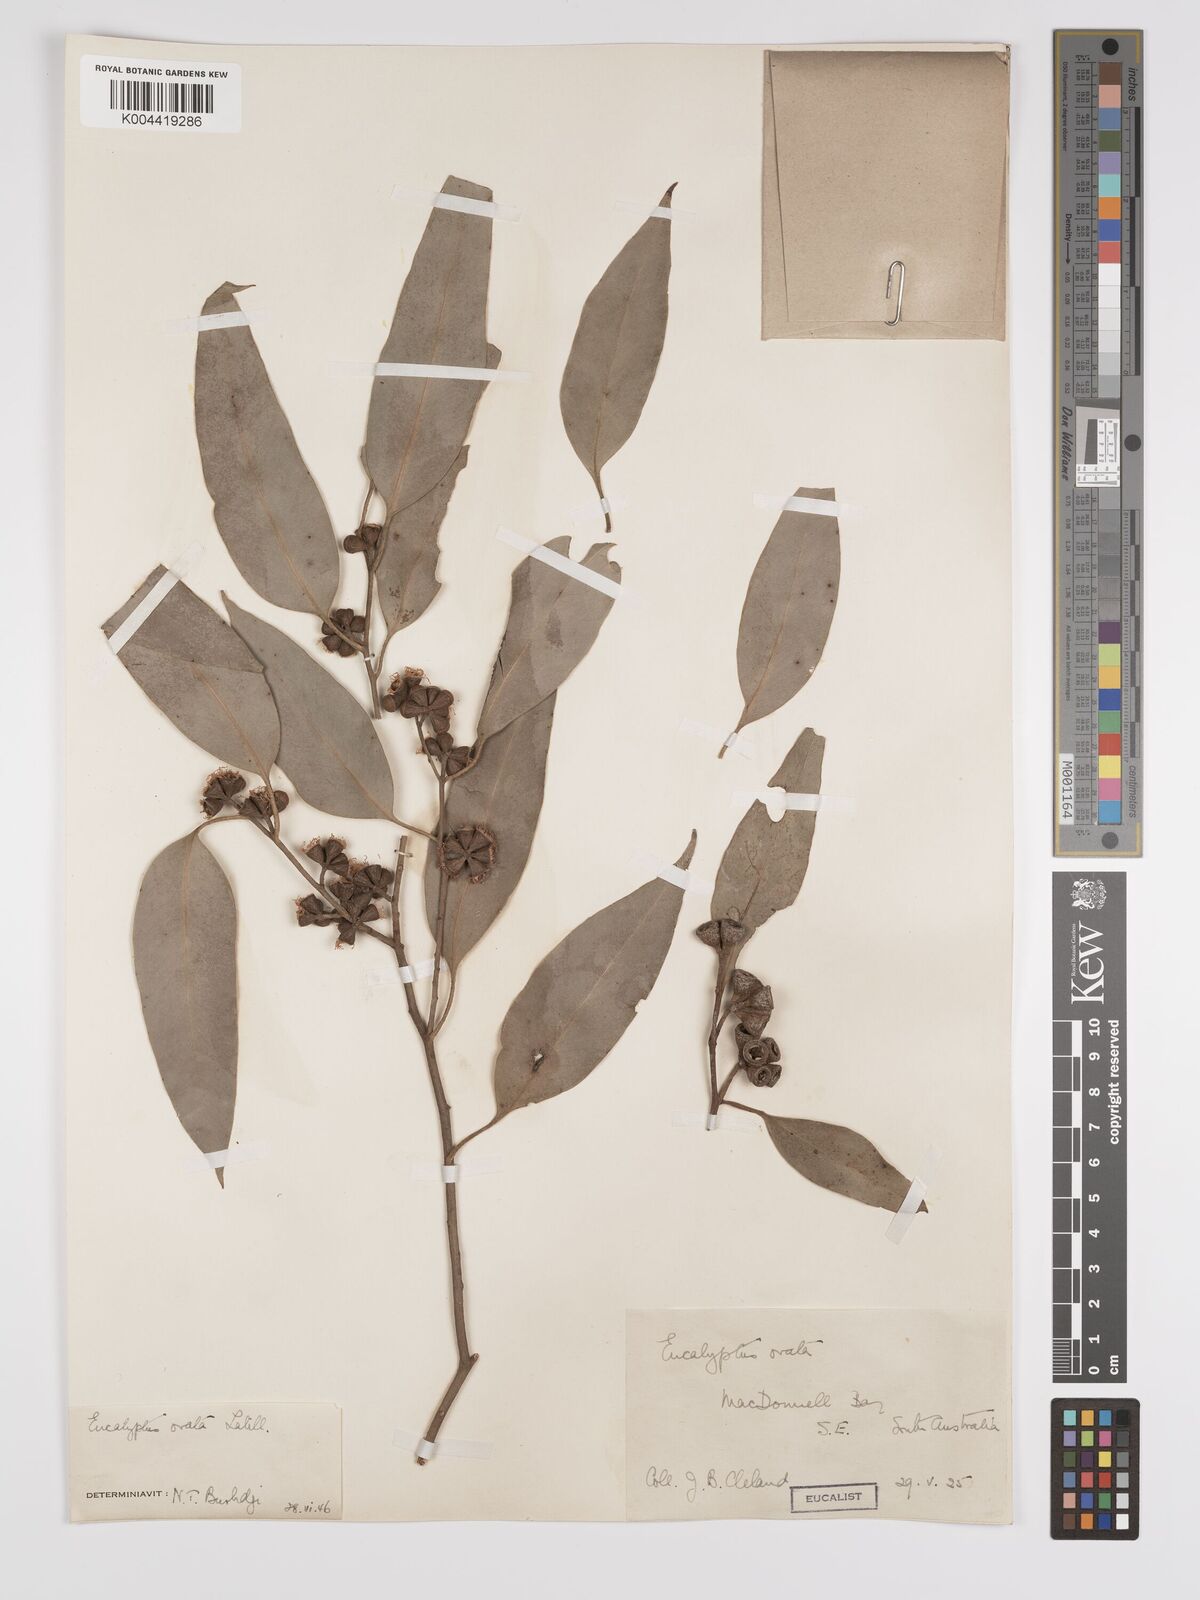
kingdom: Plantae
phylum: Tracheophyta
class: Magnoliopsida
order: Myrtales
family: Myrtaceae
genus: Eucalyptus
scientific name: Eucalyptus ovata
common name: Black-gum
